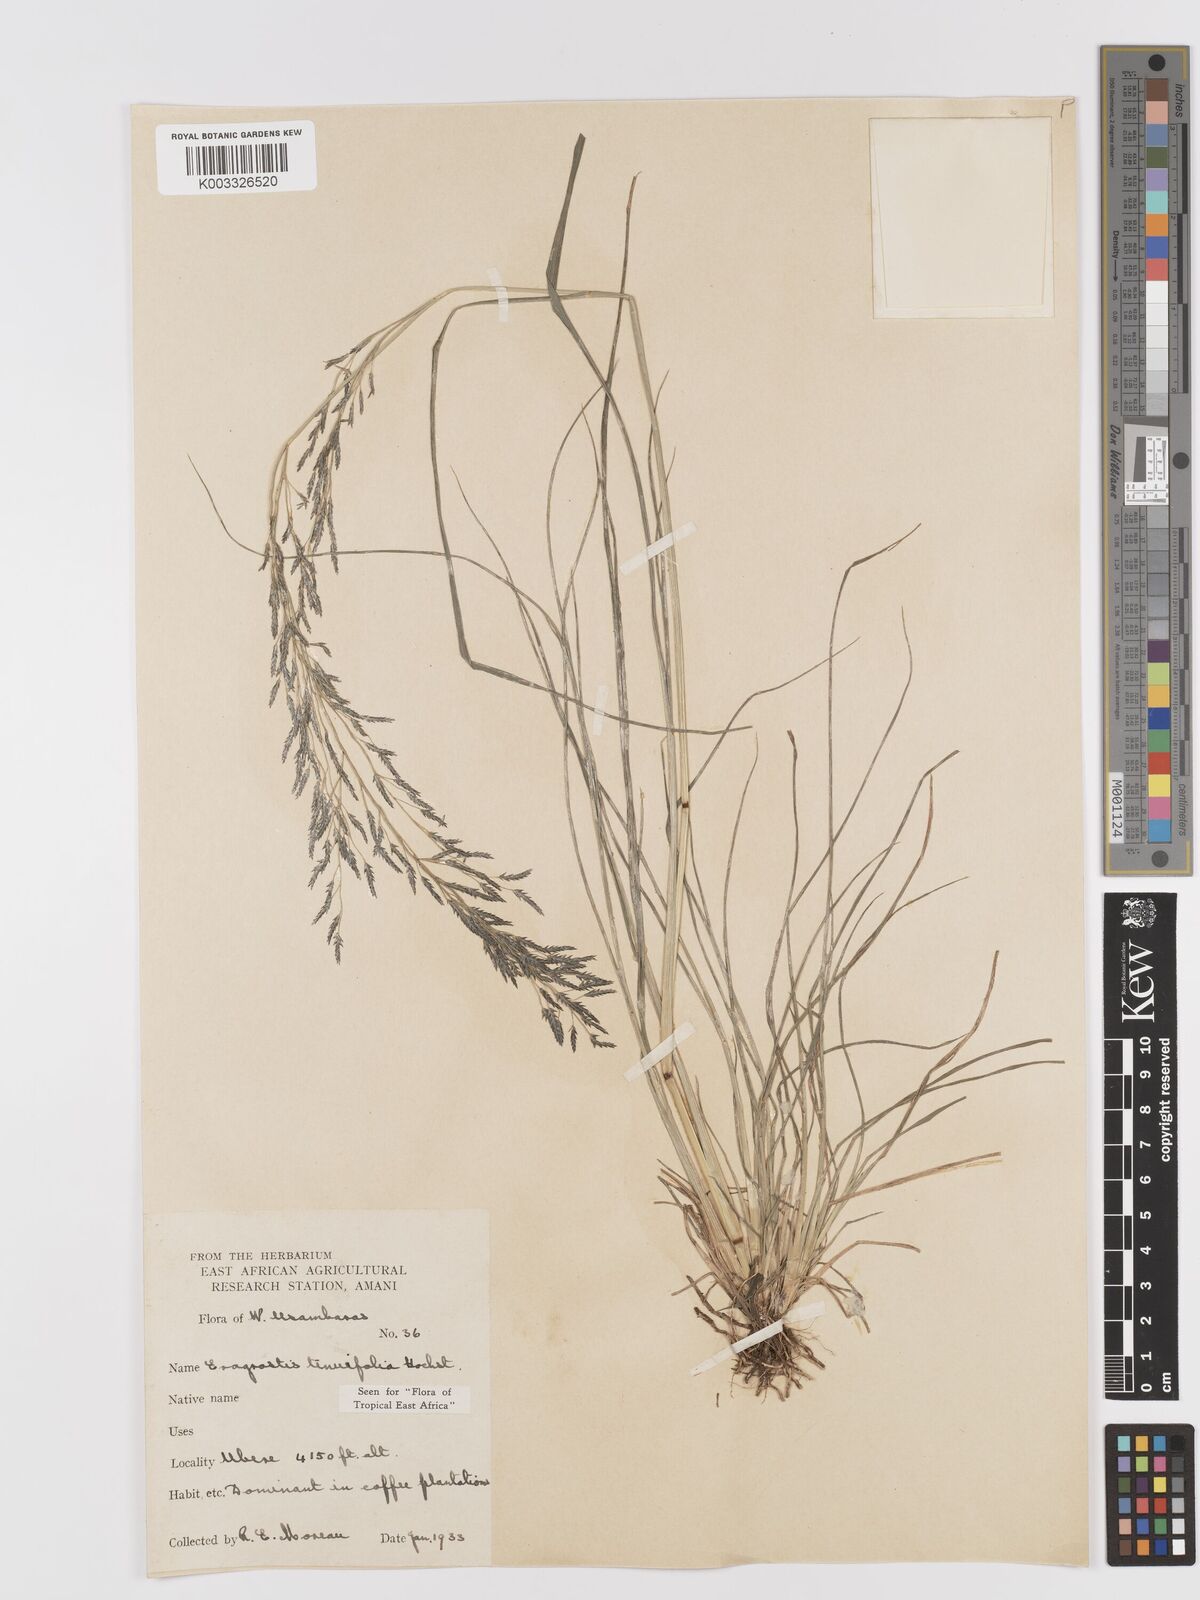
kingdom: Plantae
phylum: Tracheophyta
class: Liliopsida
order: Poales
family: Poaceae
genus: Eragrostis
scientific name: Eragrostis tenuifolia
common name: Elastic grass
